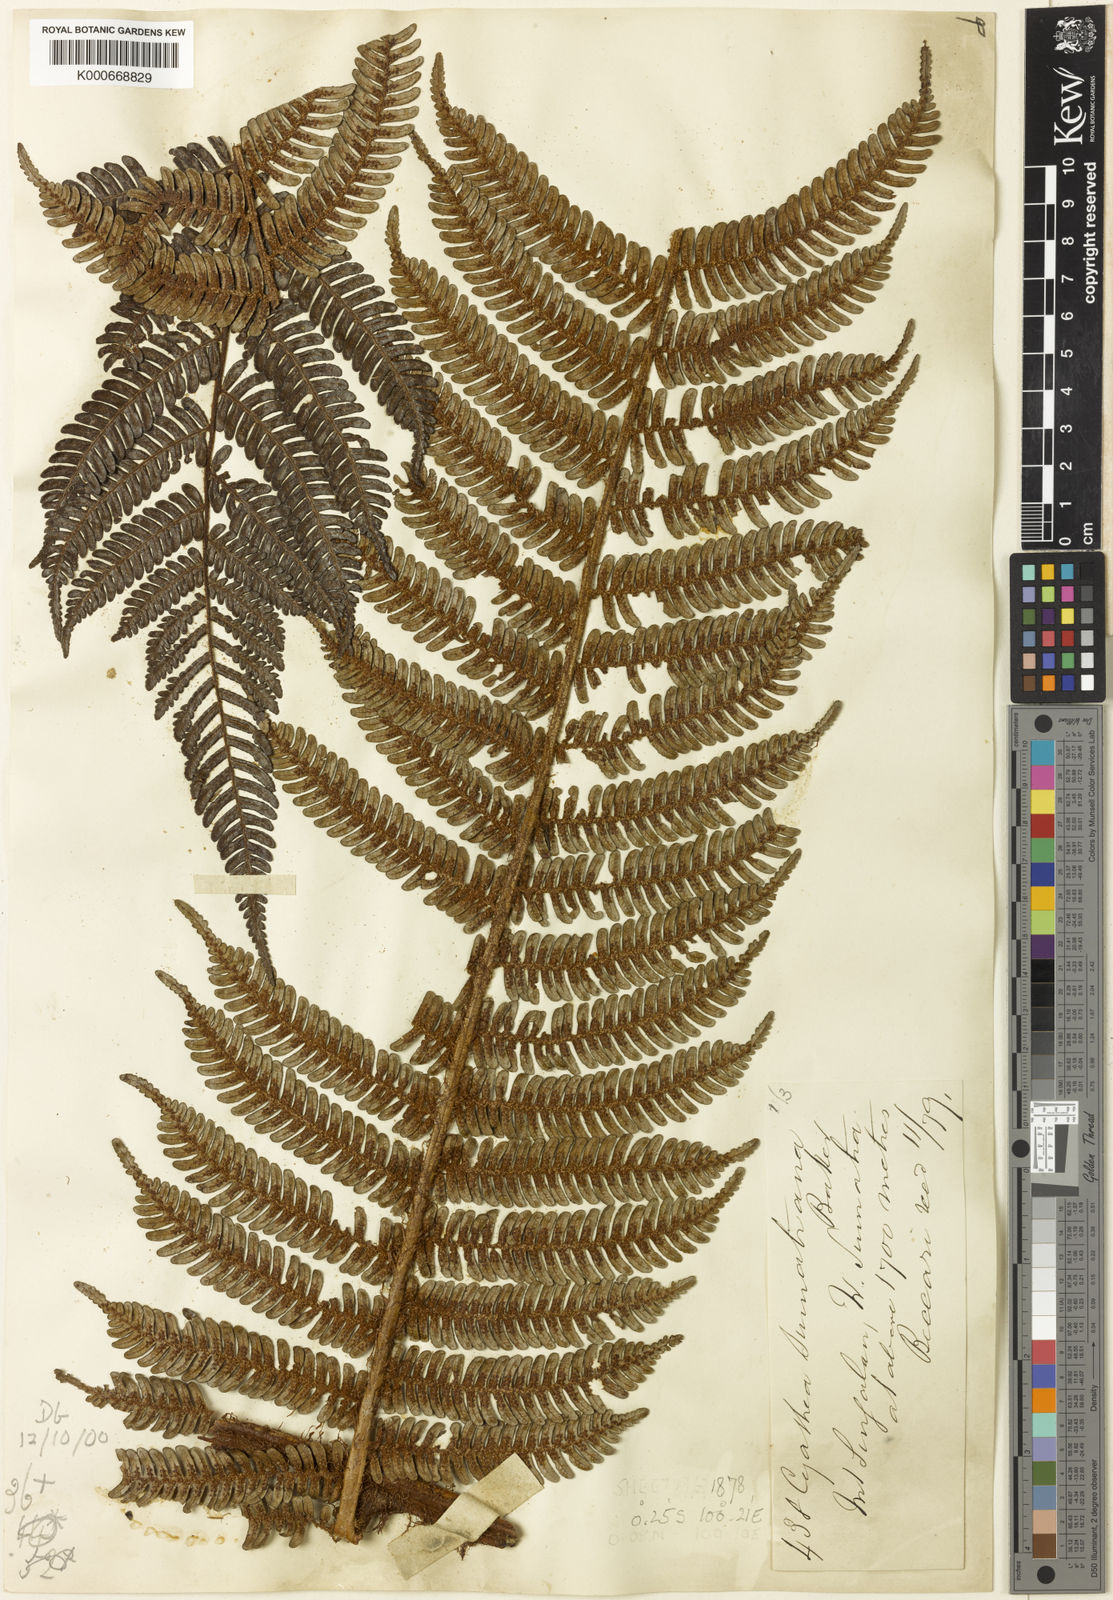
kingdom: Plantae
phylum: Tracheophyta
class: Polypodiopsida
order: Cyatheales
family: Cyatheaceae
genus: Alsophila
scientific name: Alsophila sumatrana
